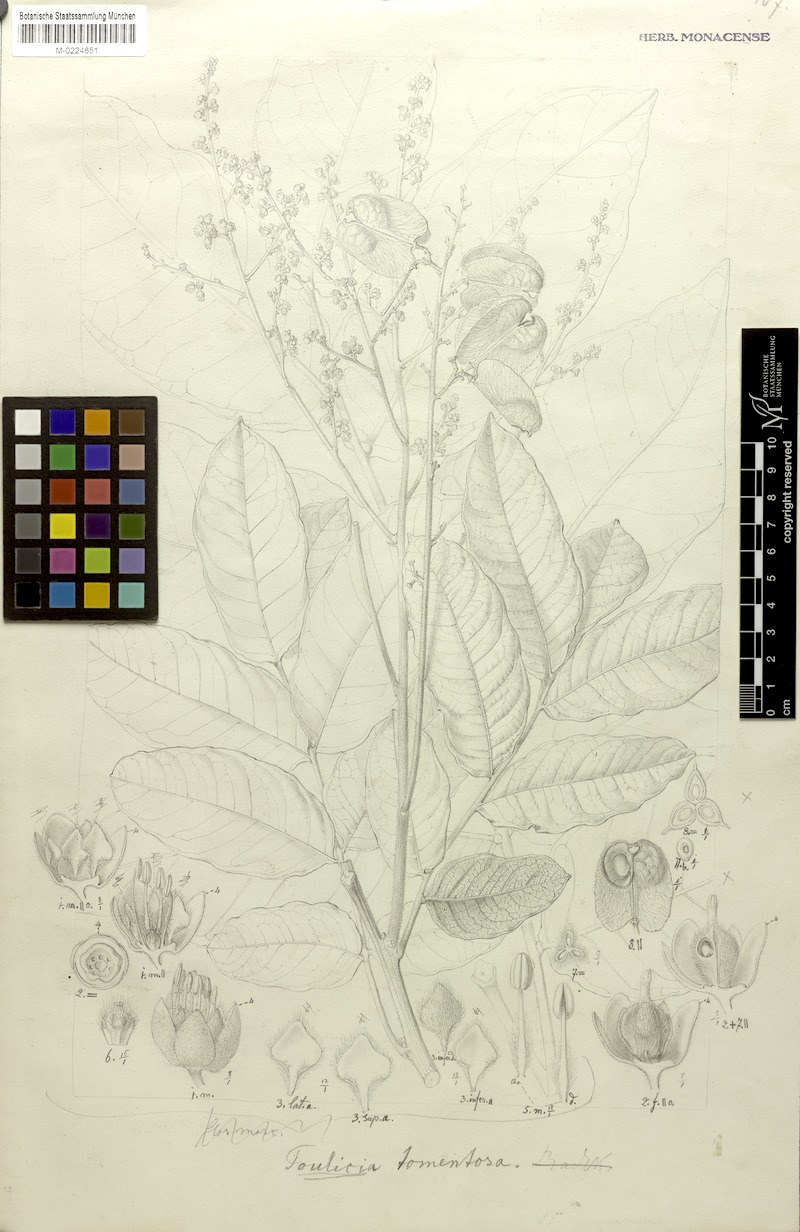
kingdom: Plantae
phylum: Tracheophyta
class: Magnoliopsida
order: Sapindales
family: Sapindaceae
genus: Toulicia
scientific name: Toulicia tomentosa
